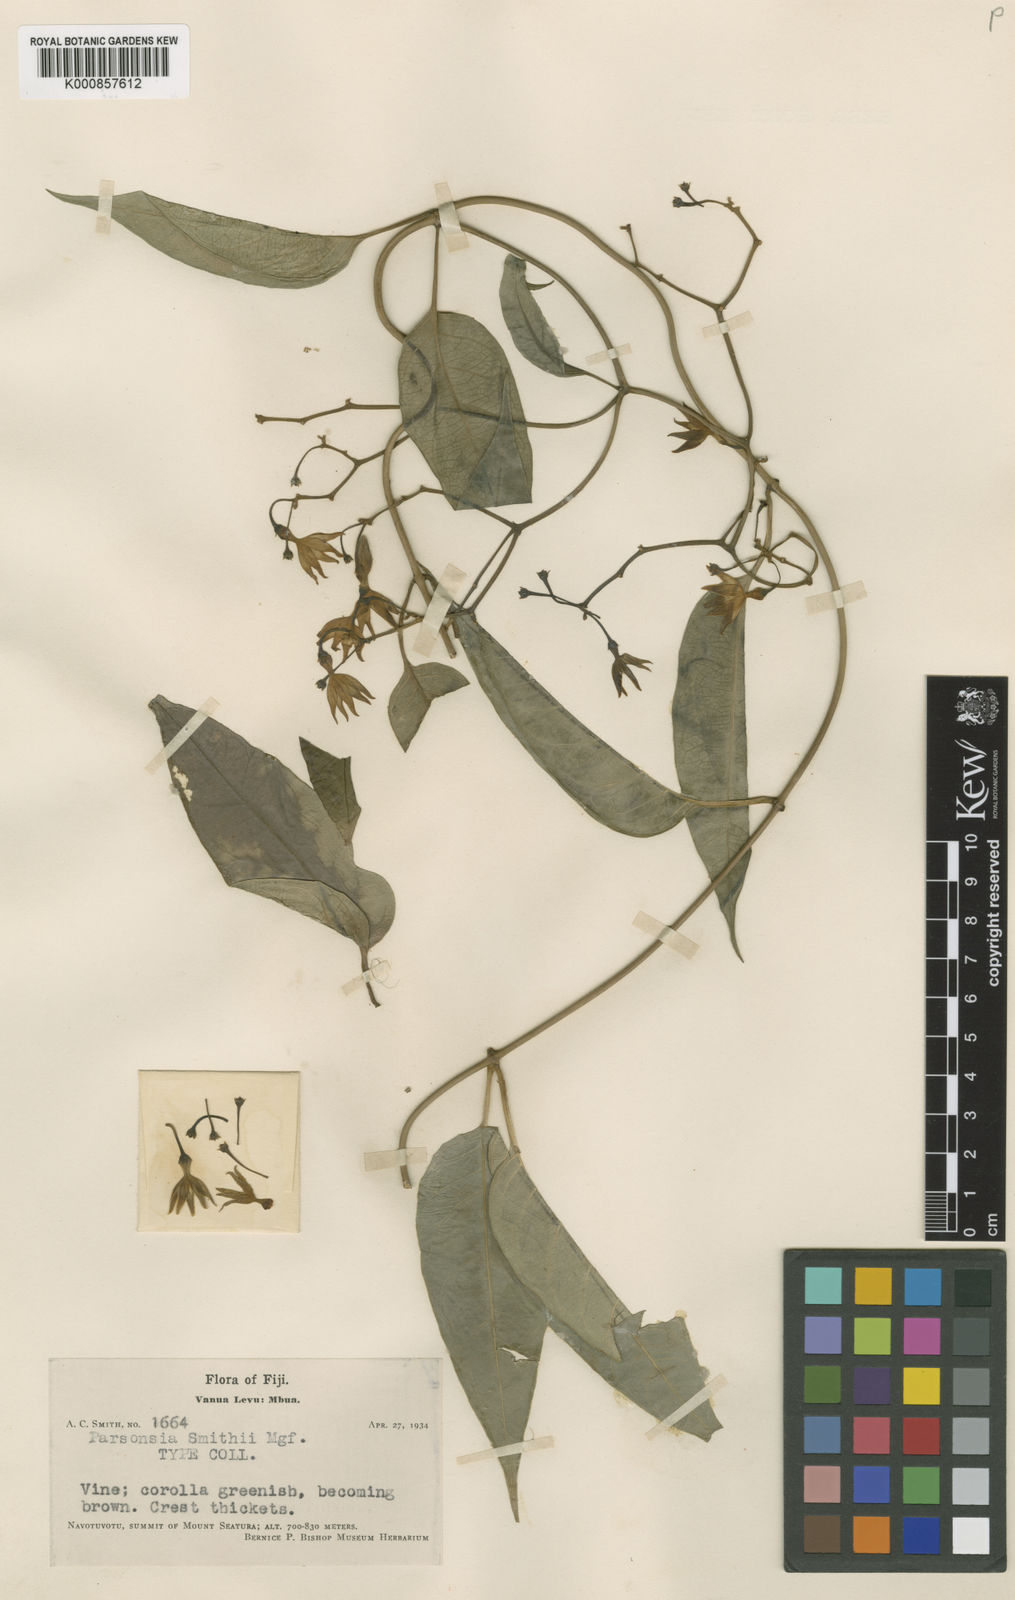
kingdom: Plantae
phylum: Tracheophyta
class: Magnoliopsida
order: Gentianales
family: Apocynaceae
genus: Parsonsia
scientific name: Parsonsia smithii
